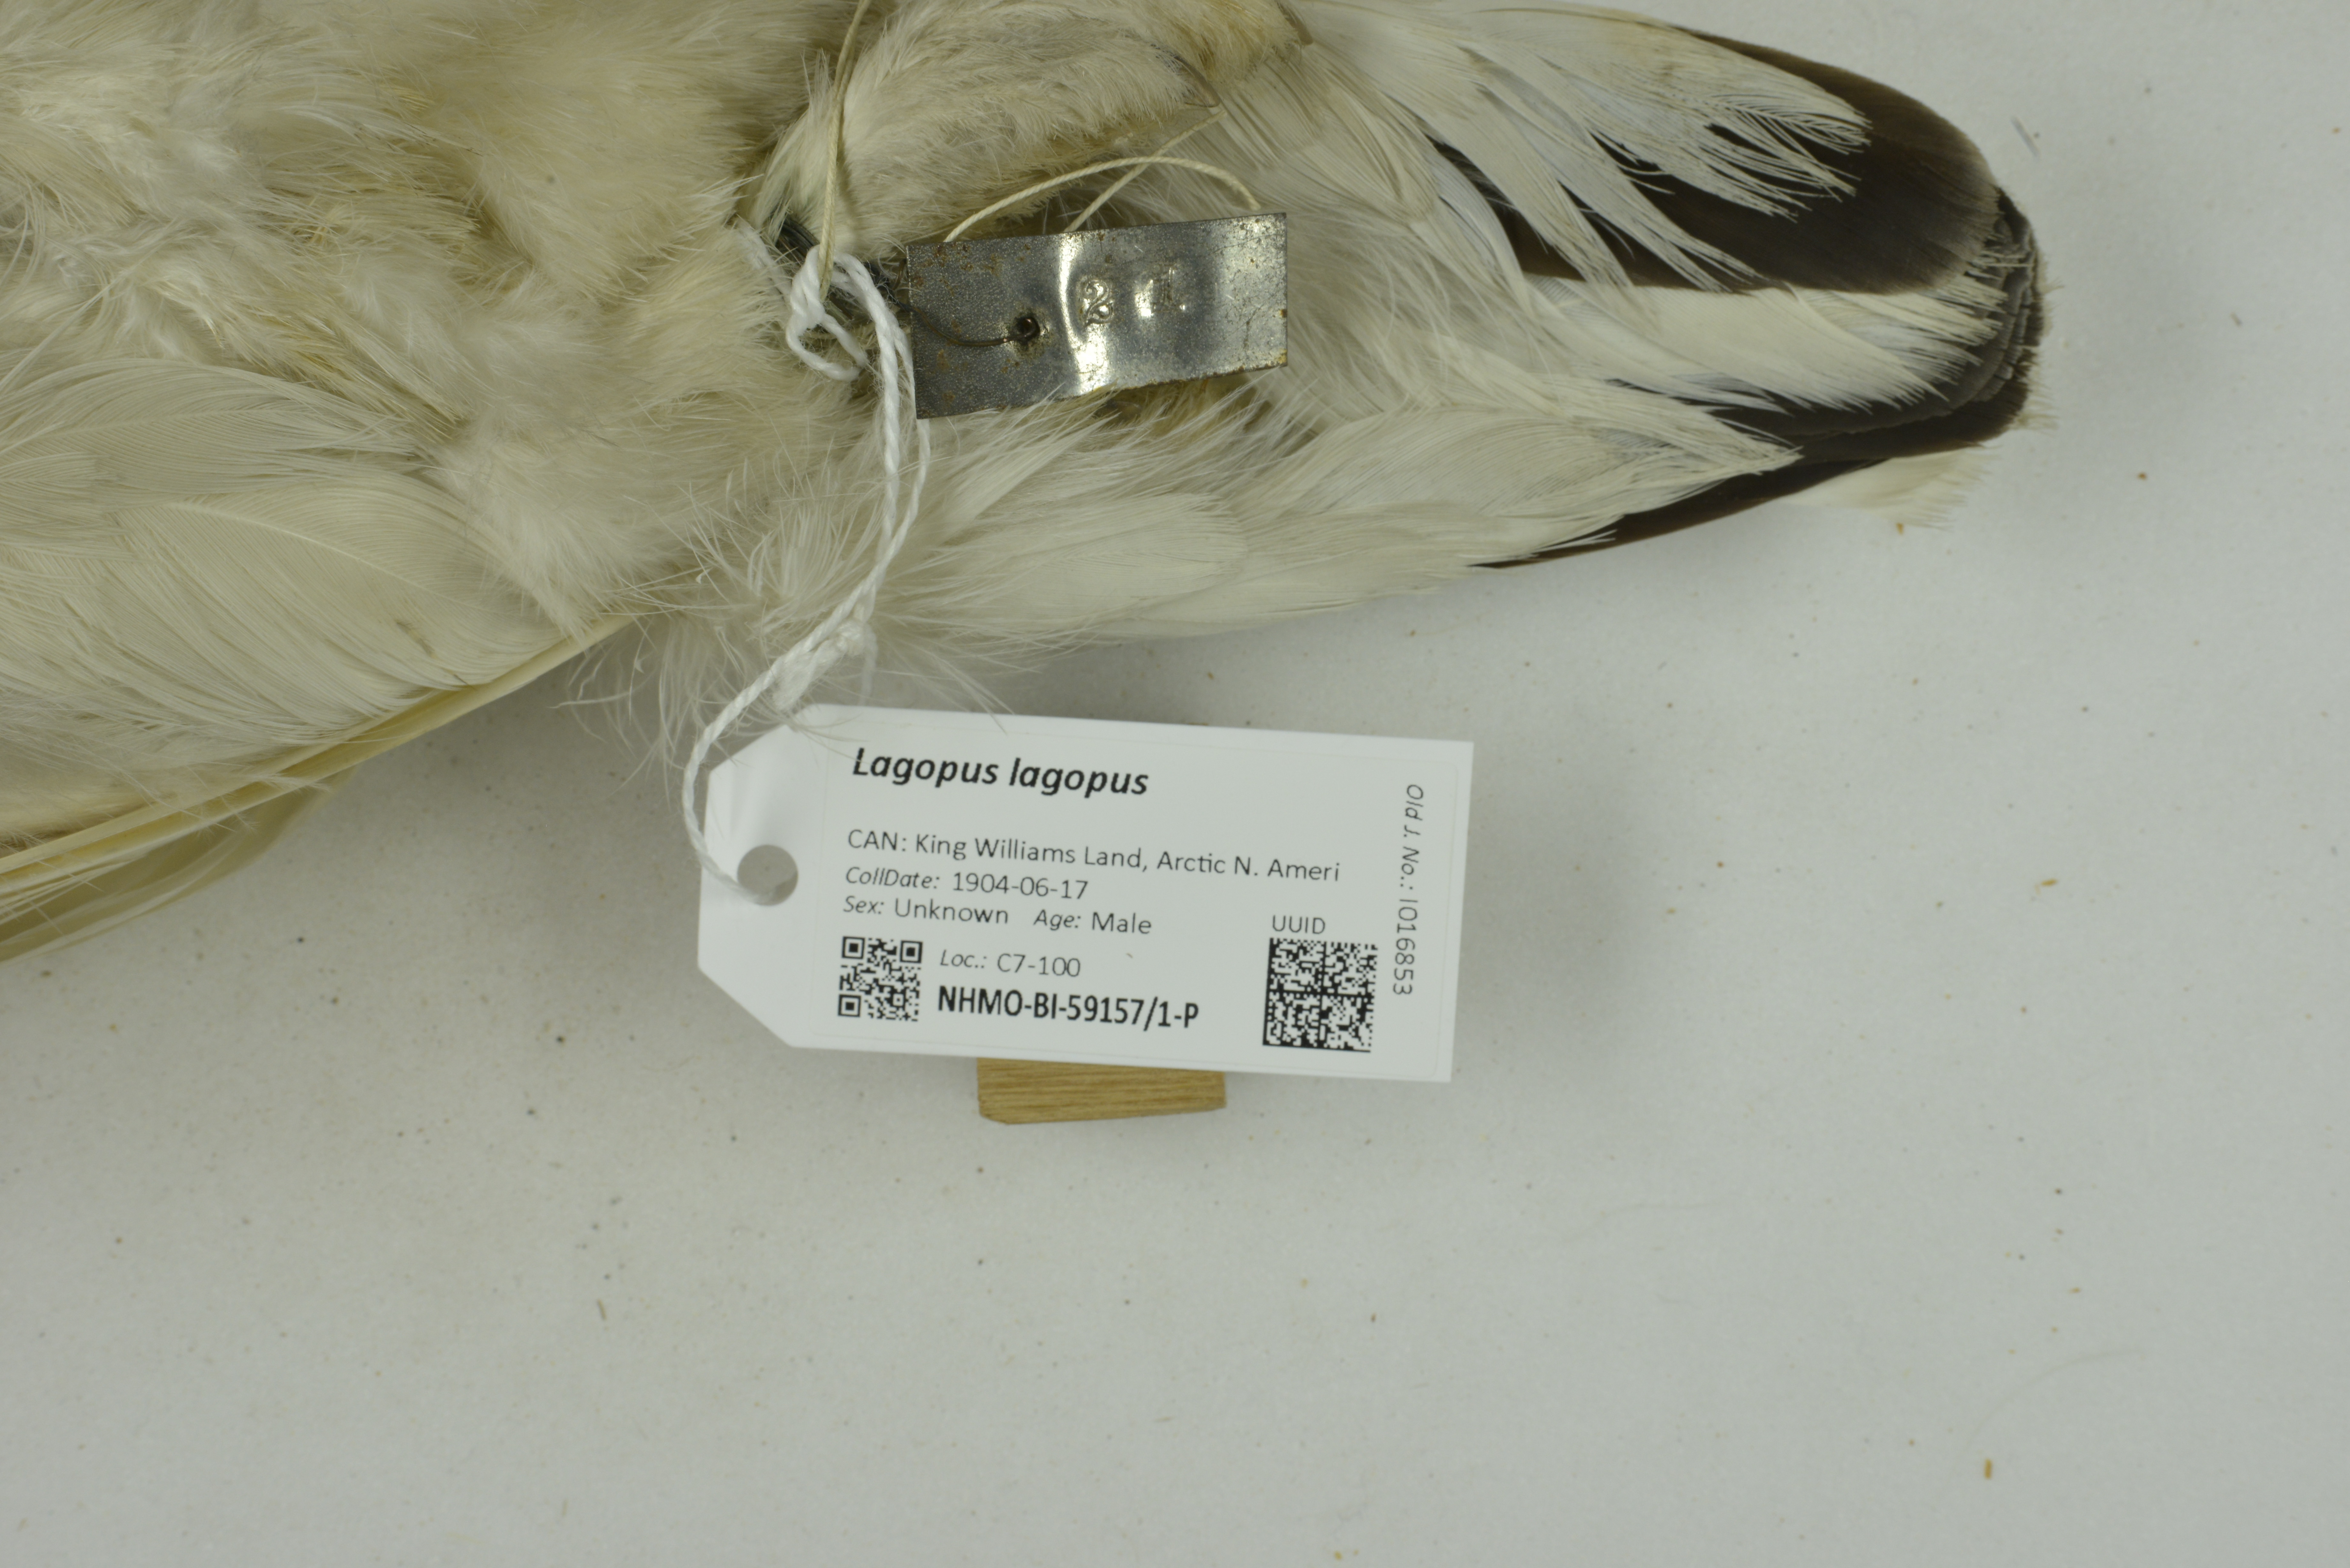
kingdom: Animalia
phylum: Chordata
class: Aves
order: Galliformes
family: Phasianidae
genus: Lagopus
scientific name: Lagopus lagopus
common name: Willow ptarmigan
